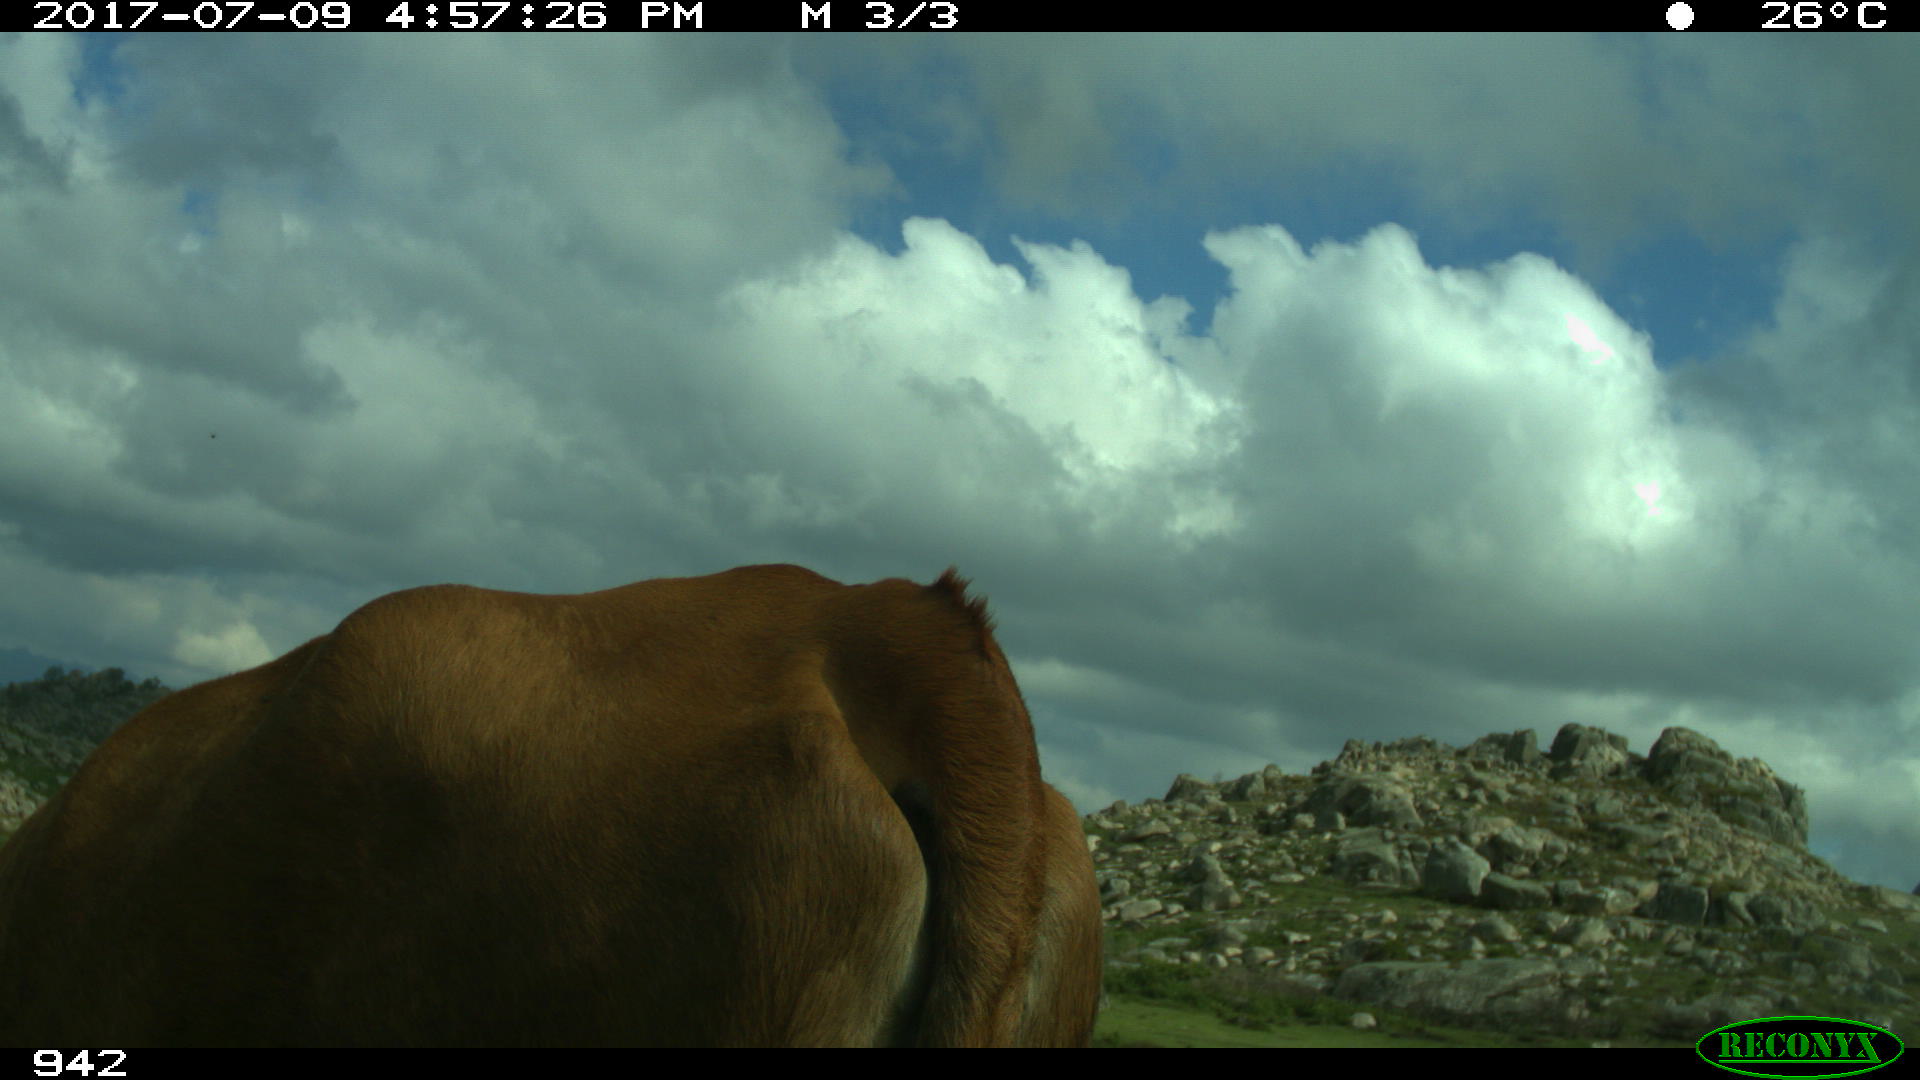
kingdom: Animalia
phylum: Chordata
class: Mammalia
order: Artiodactyla
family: Bovidae
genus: Bos
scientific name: Bos taurus
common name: Domesticated cattle
